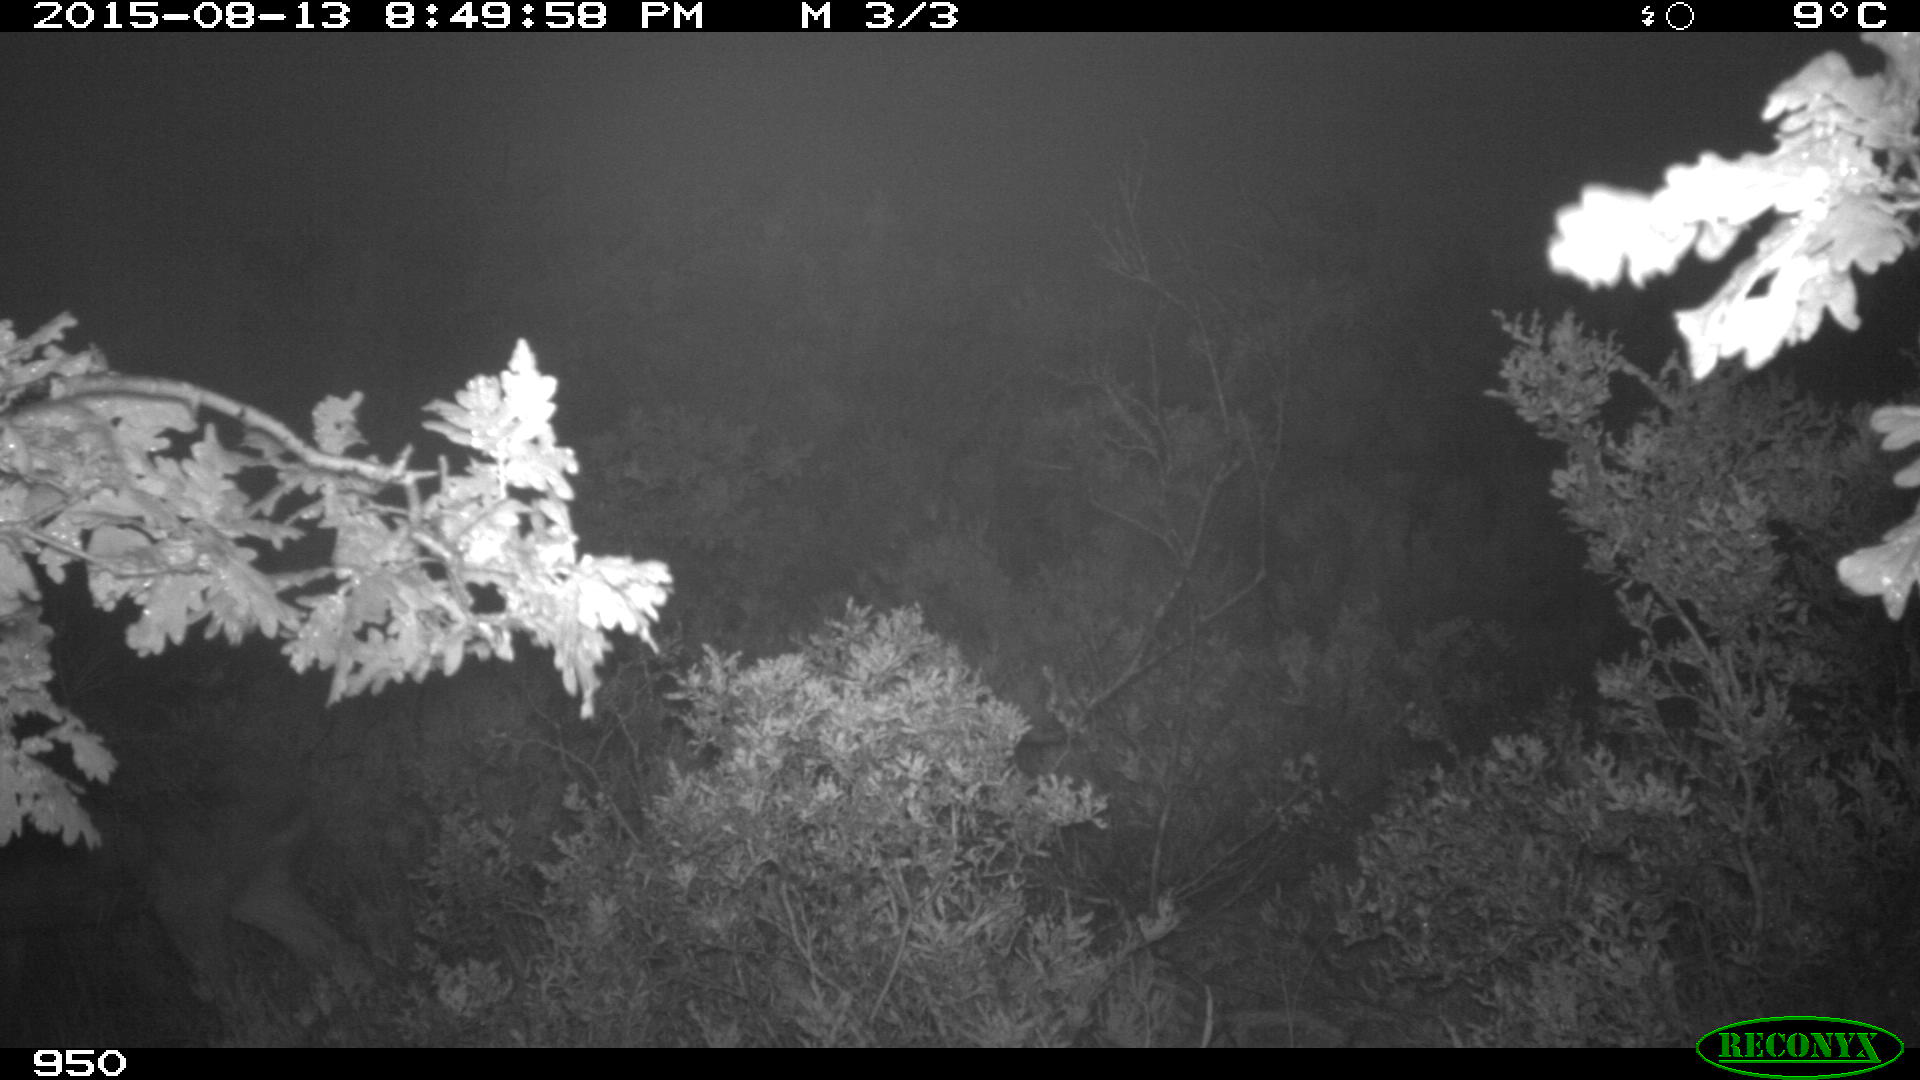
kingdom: Animalia
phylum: Chordata
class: Mammalia
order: Artiodactyla
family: Cervidae
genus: Capreolus
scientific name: Capreolus capreolus
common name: Western roe deer
